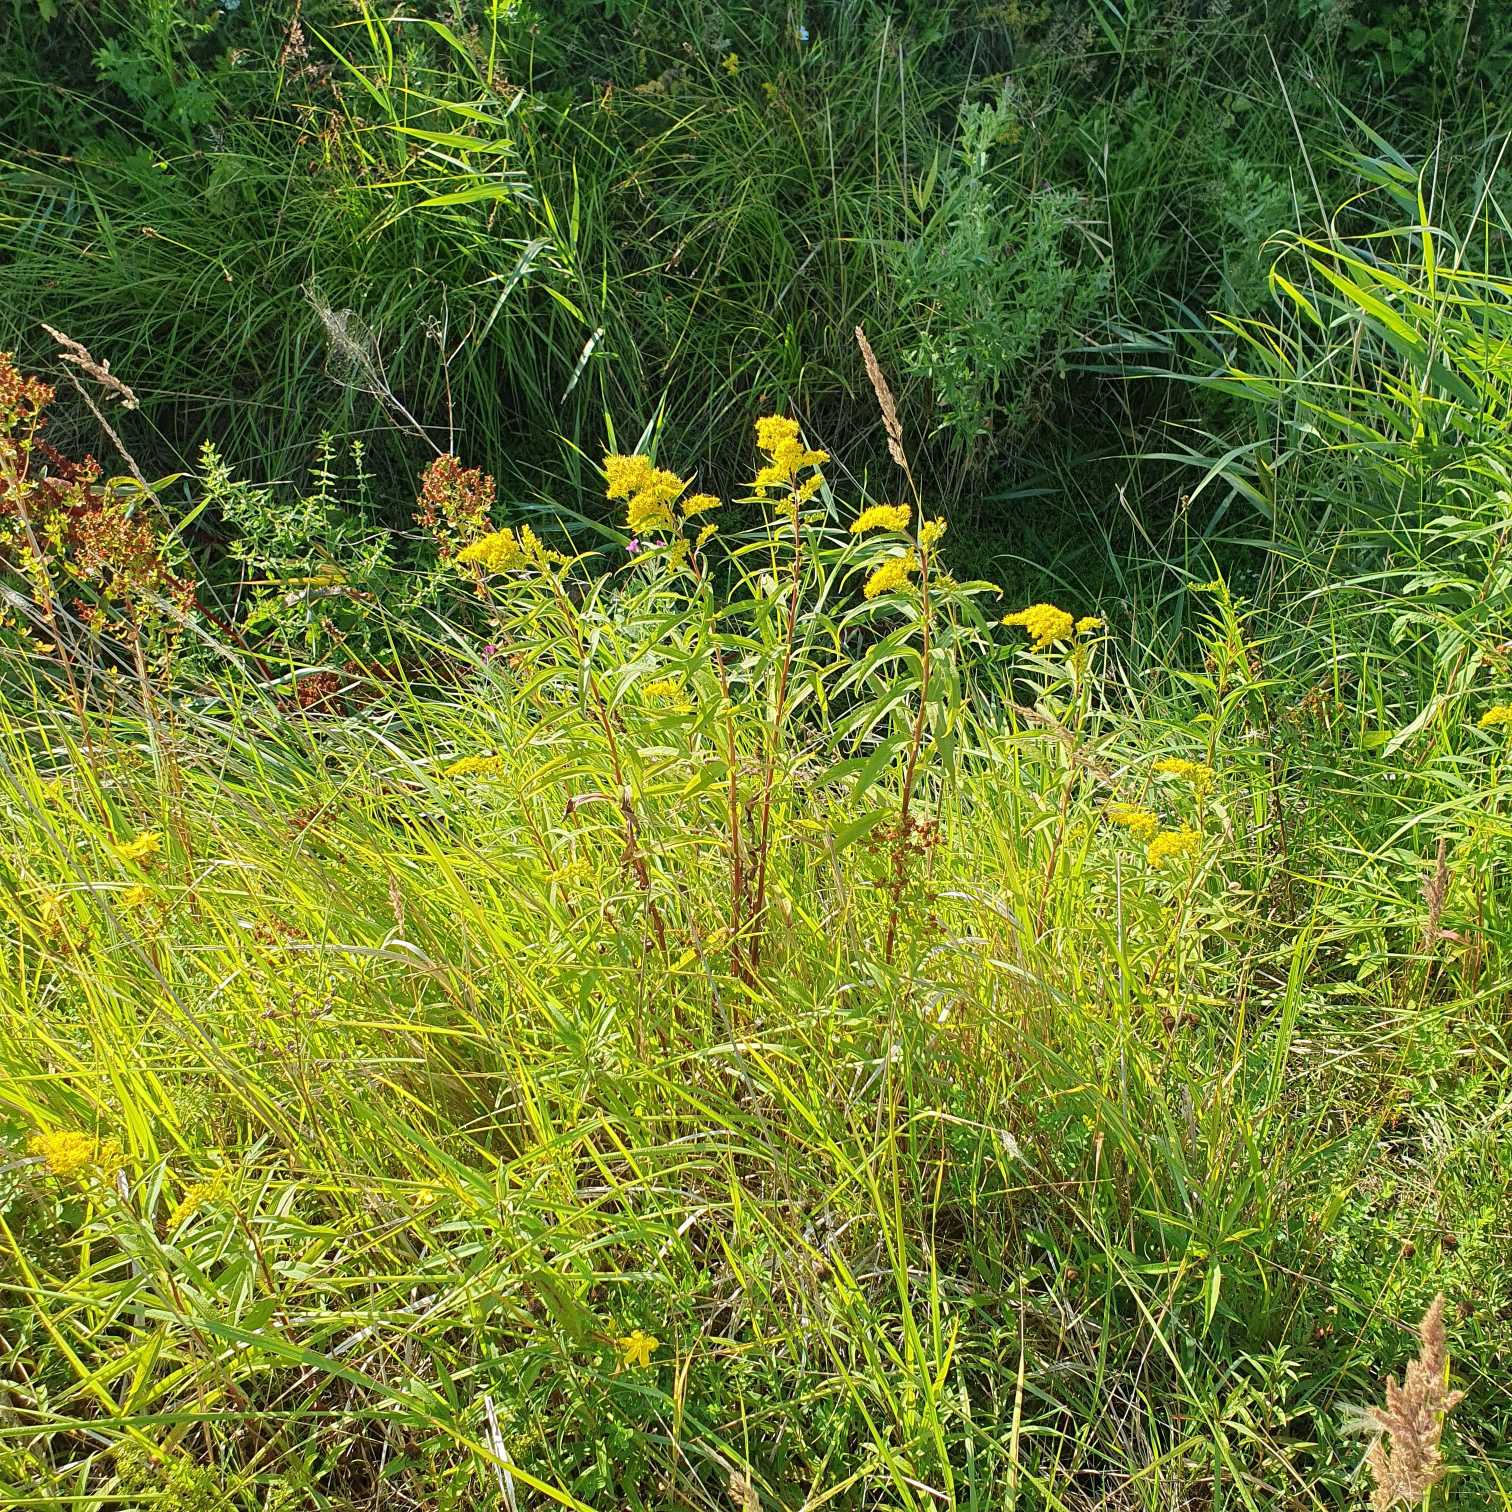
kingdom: Plantae
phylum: Tracheophyta
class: Magnoliopsida
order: Asterales
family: Asteraceae
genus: Solidago
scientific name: Solidago
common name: Gyldenrisslægten
